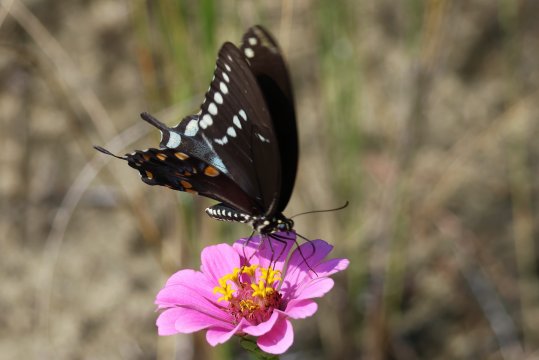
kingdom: Animalia
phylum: Arthropoda
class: Insecta
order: Lepidoptera
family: Papilionidae
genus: Pterourus
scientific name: Pterourus troilus
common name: Spicebush Swallowtail
